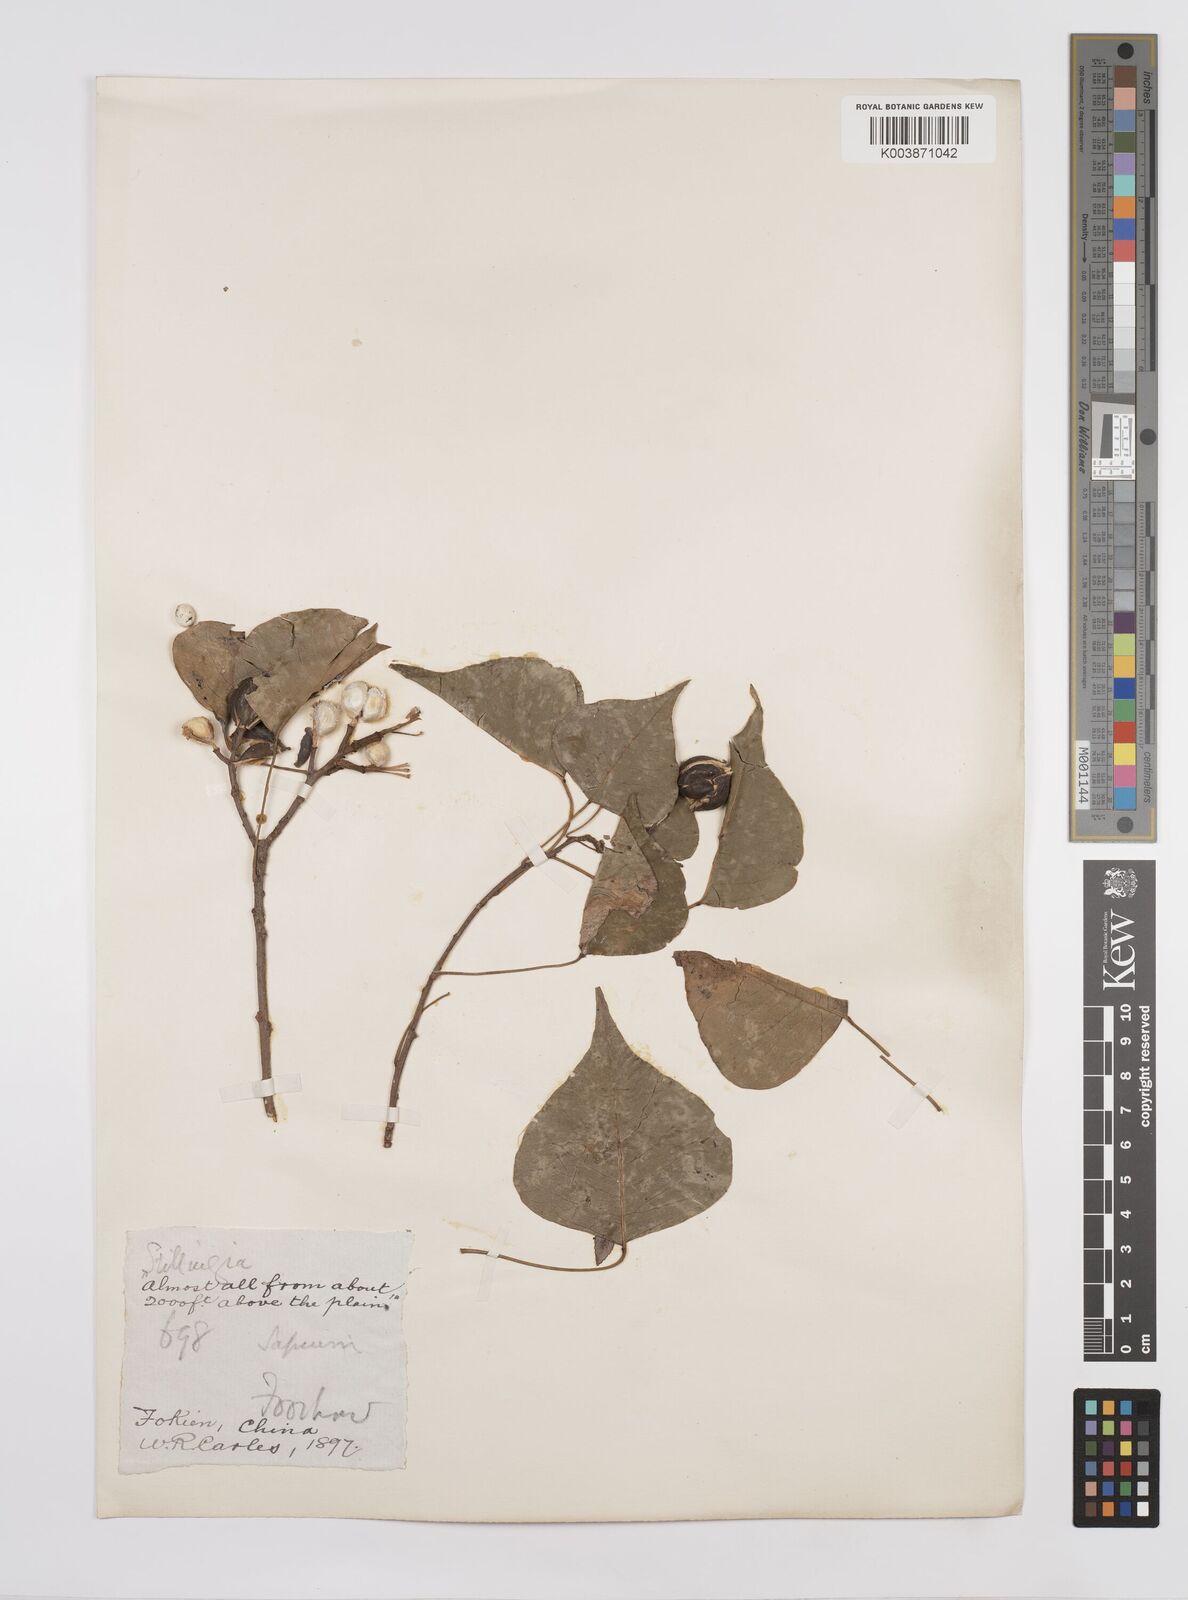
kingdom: Plantae
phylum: Tracheophyta
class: Magnoliopsida
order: Malpighiales
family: Euphorbiaceae
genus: Triadica
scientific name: Triadica sebifera
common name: Chinese tallow
